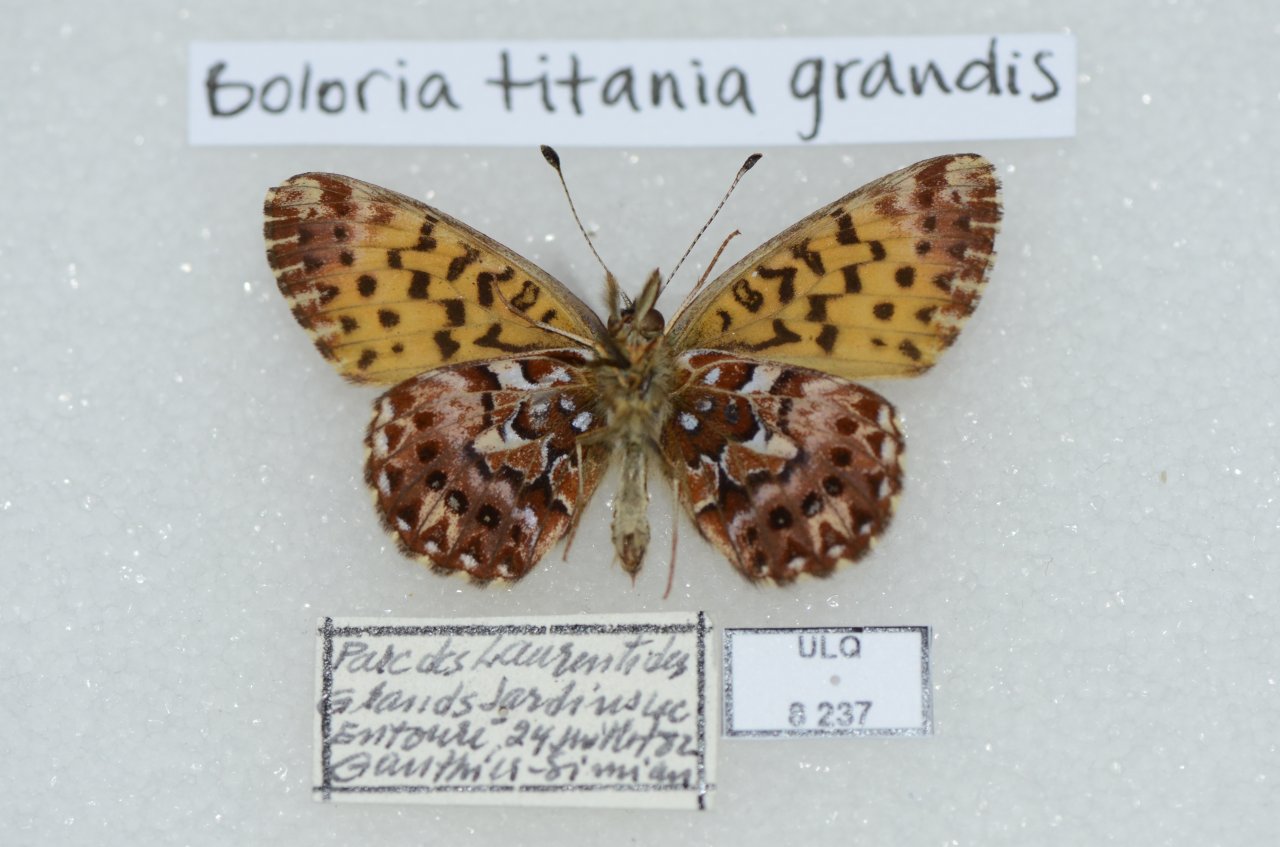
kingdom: Animalia
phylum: Arthropoda
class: Insecta
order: Lepidoptera
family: Nymphalidae
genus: Boloria
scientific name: Boloria chariclea
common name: Arctic Fritillary
